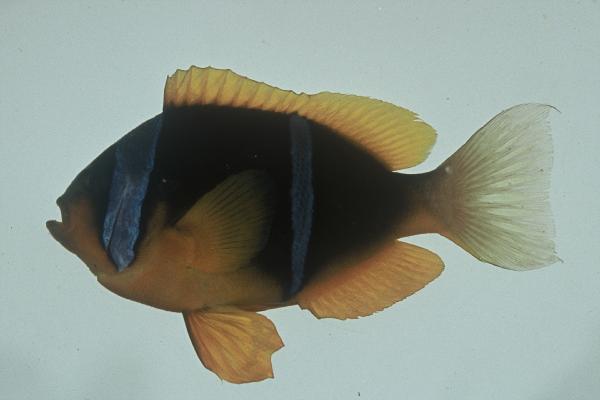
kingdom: Animalia
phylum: Chordata
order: Perciformes
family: Pomacentridae
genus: Amphiprion
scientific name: Amphiprion allardi
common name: Allard's anemonefish
